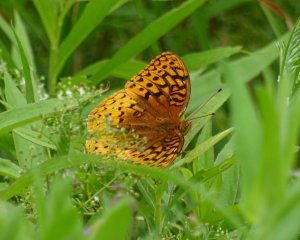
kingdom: Animalia
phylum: Arthropoda
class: Insecta
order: Lepidoptera
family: Nymphalidae
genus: Speyeria
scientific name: Speyeria cybele
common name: Great Spangled Fritillary
